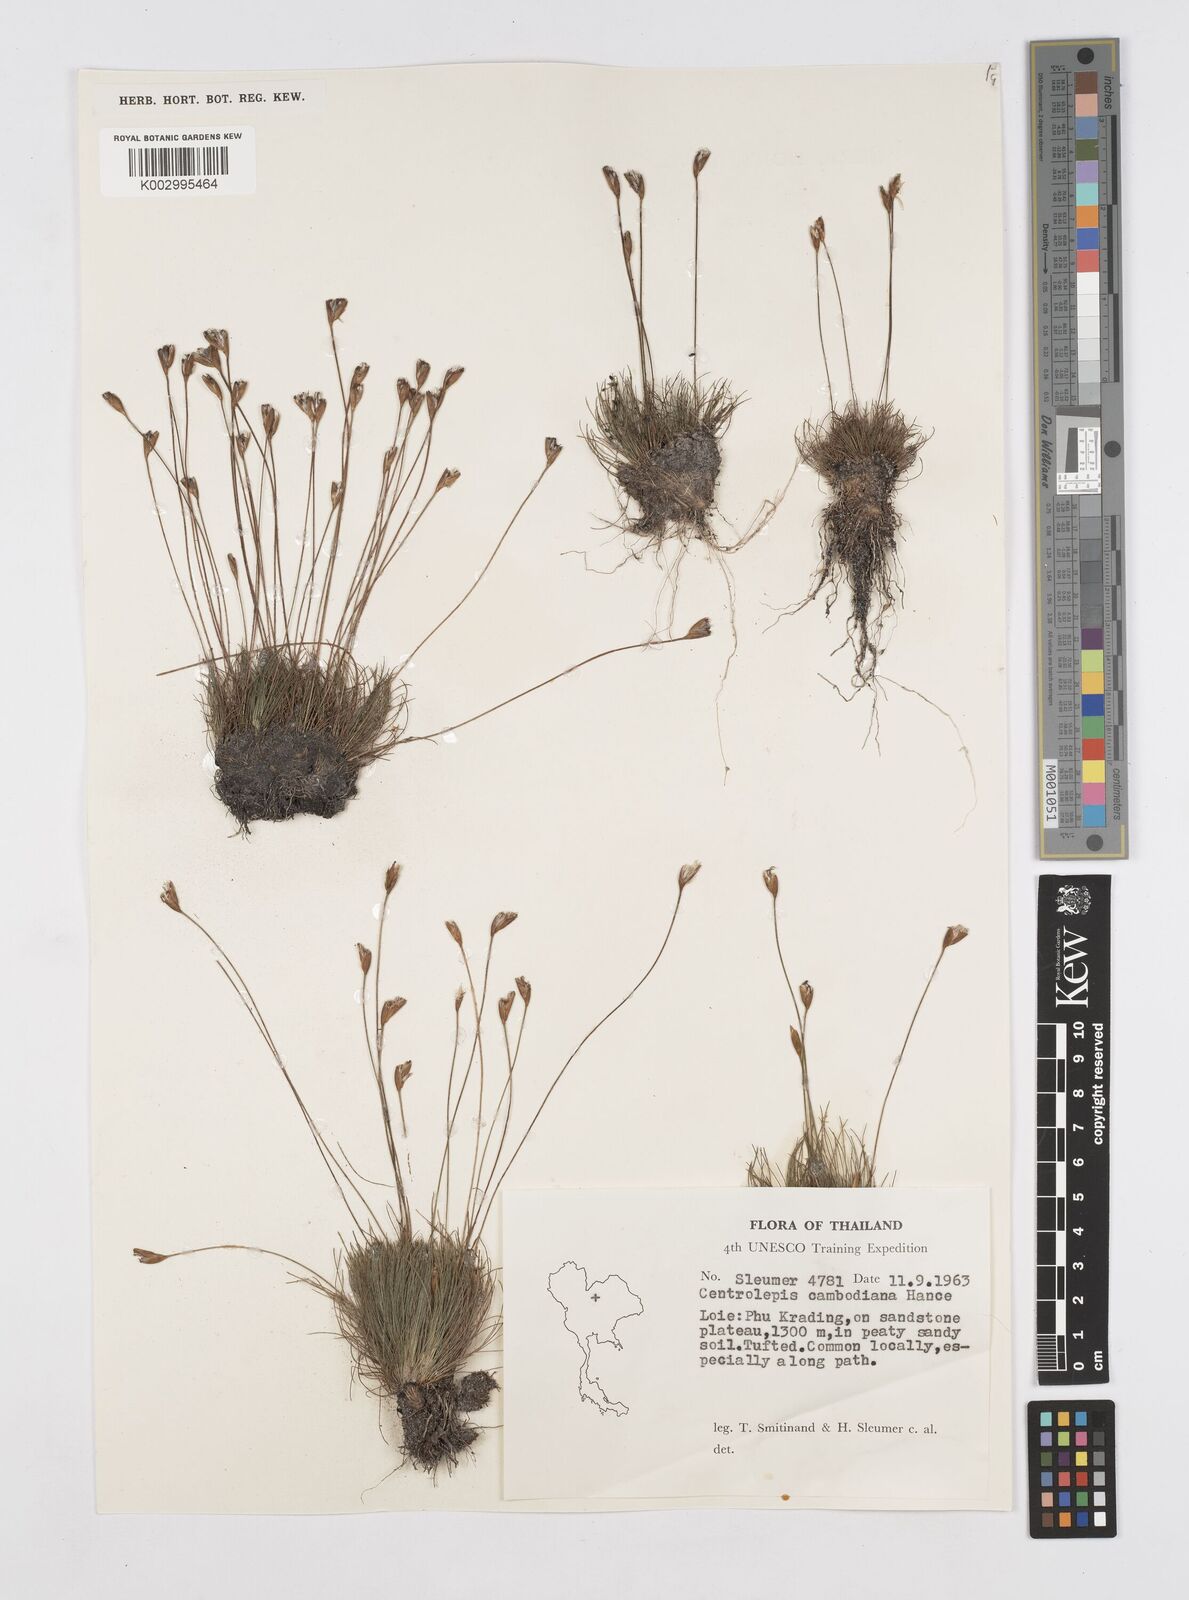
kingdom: Plantae
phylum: Tracheophyta
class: Liliopsida
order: Poales
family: Restionaceae
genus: Centrolepis
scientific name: Centrolepis cambodiana
